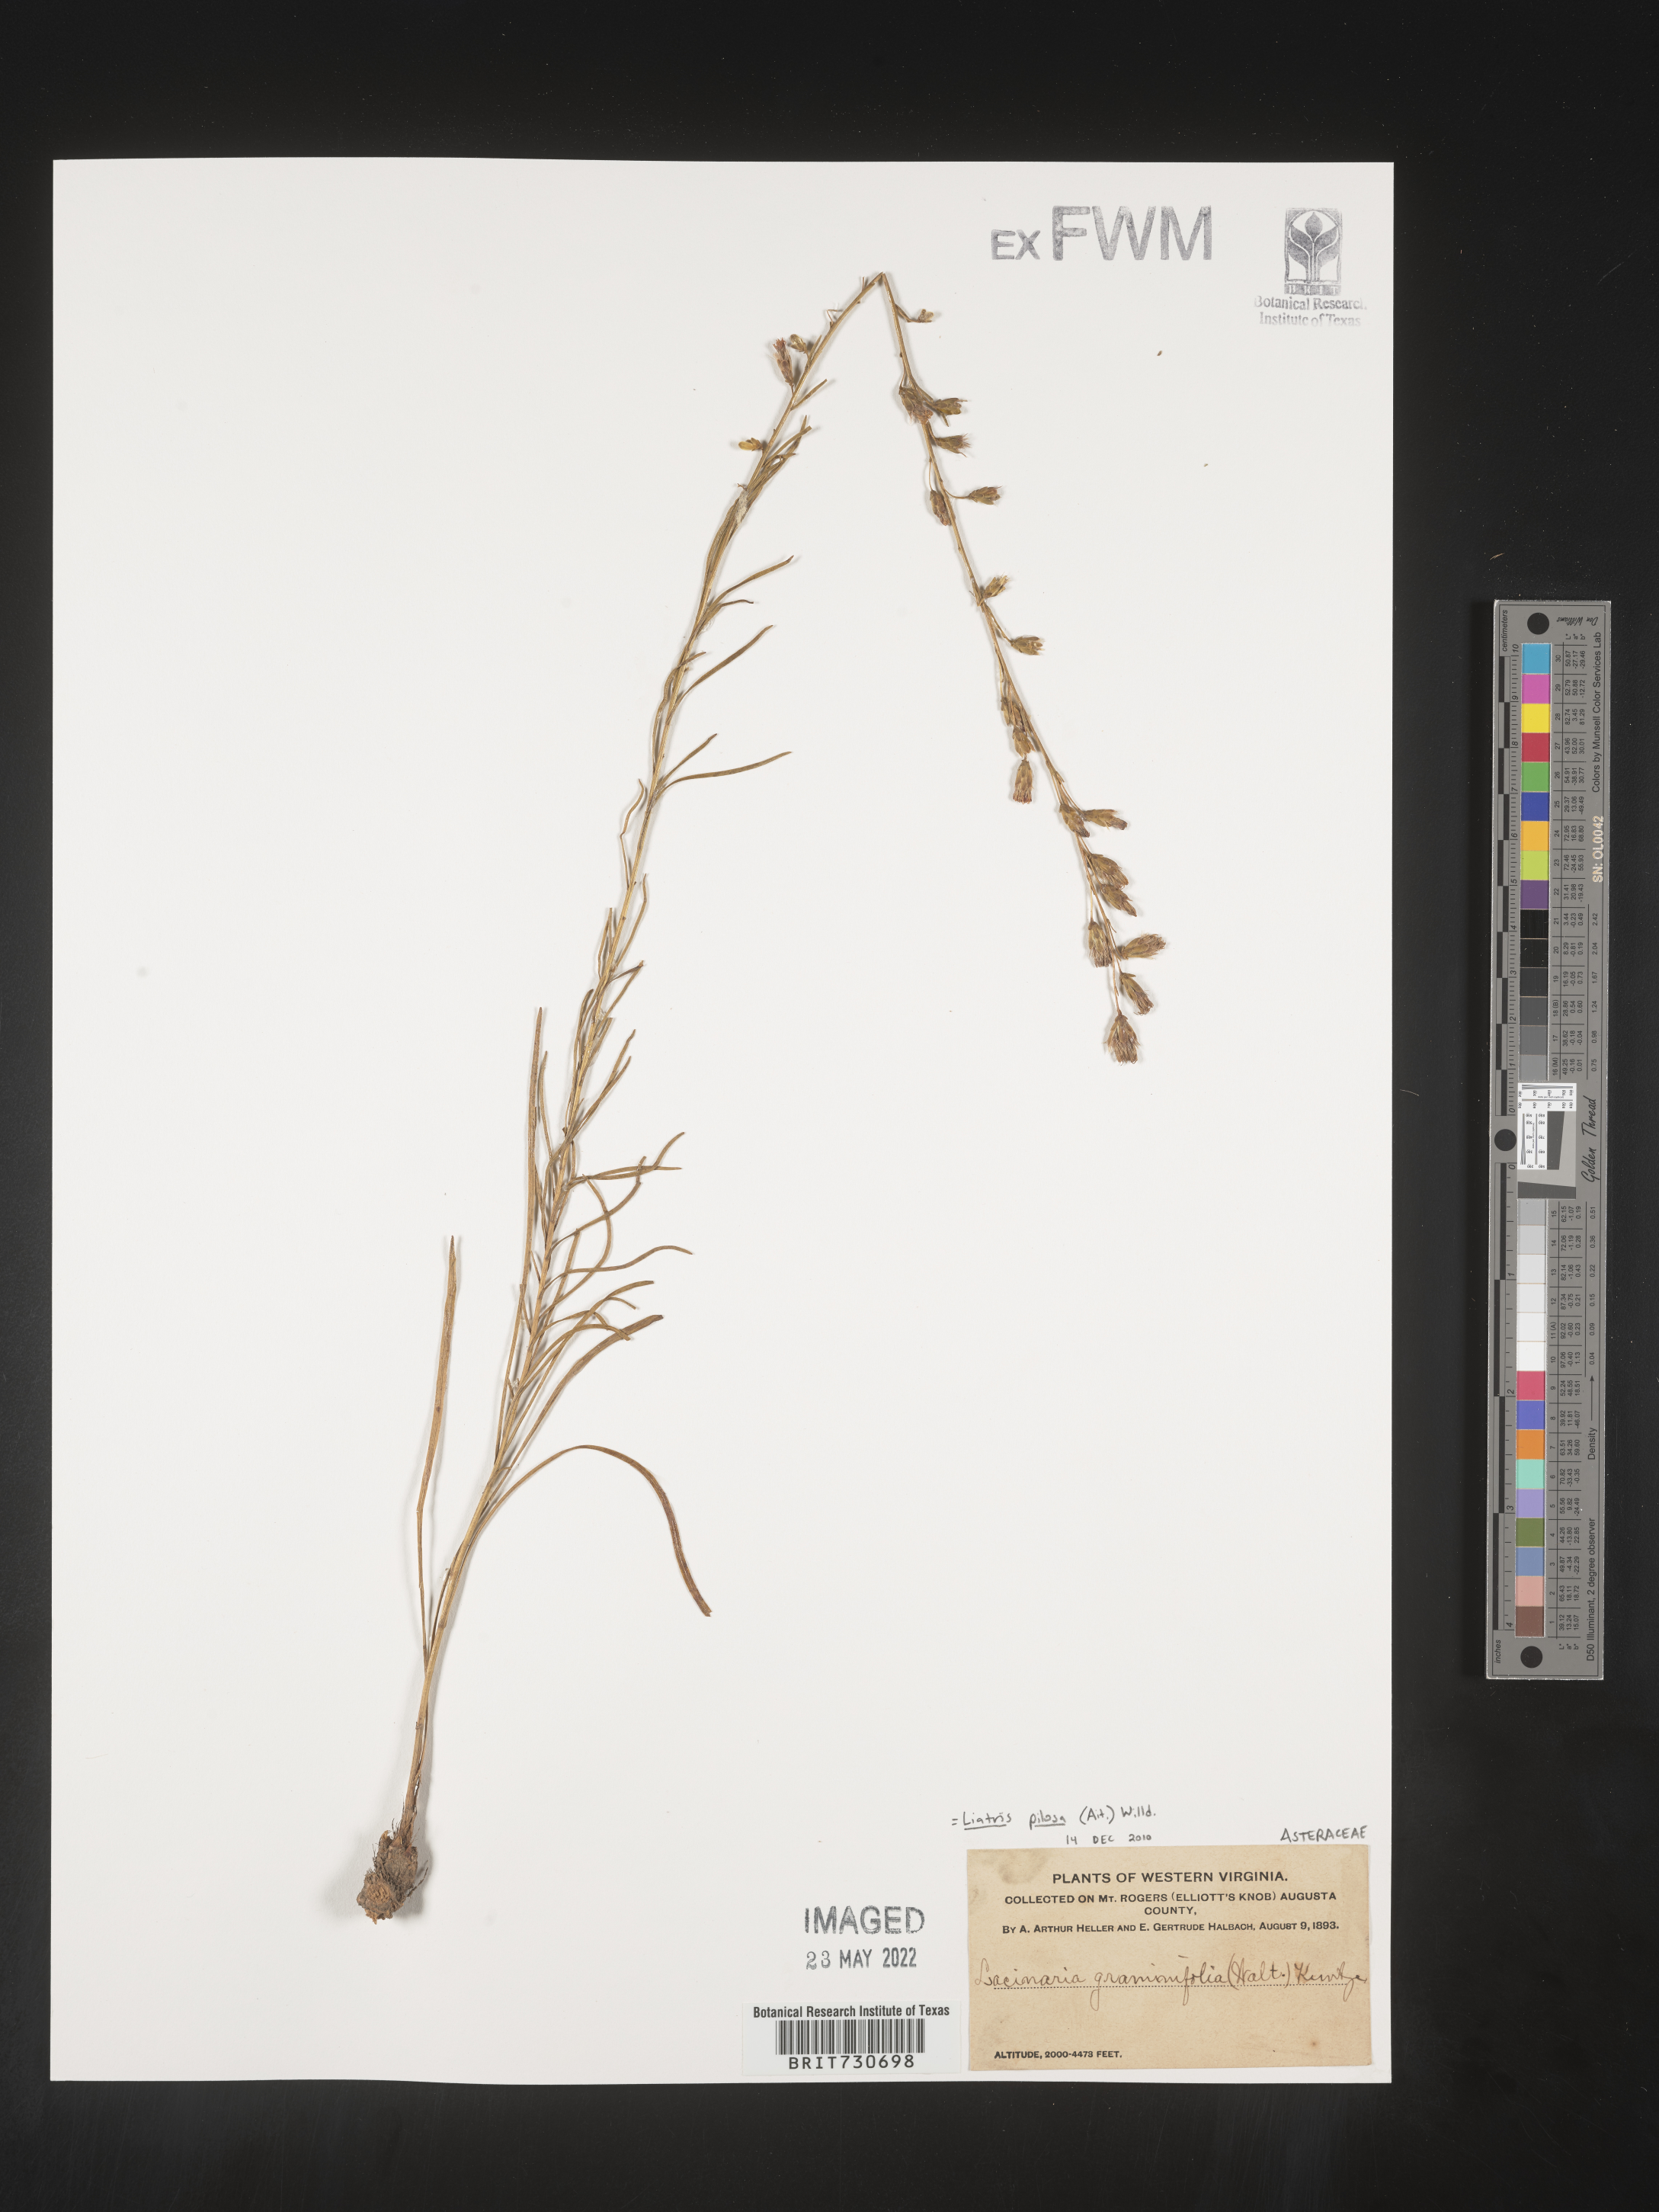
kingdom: Plantae
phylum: Tracheophyta
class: Magnoliopsida
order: Asterales
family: Asteraceae
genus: Liatris
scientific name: Liatris pilosa
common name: Grass-leaf gayfeather
